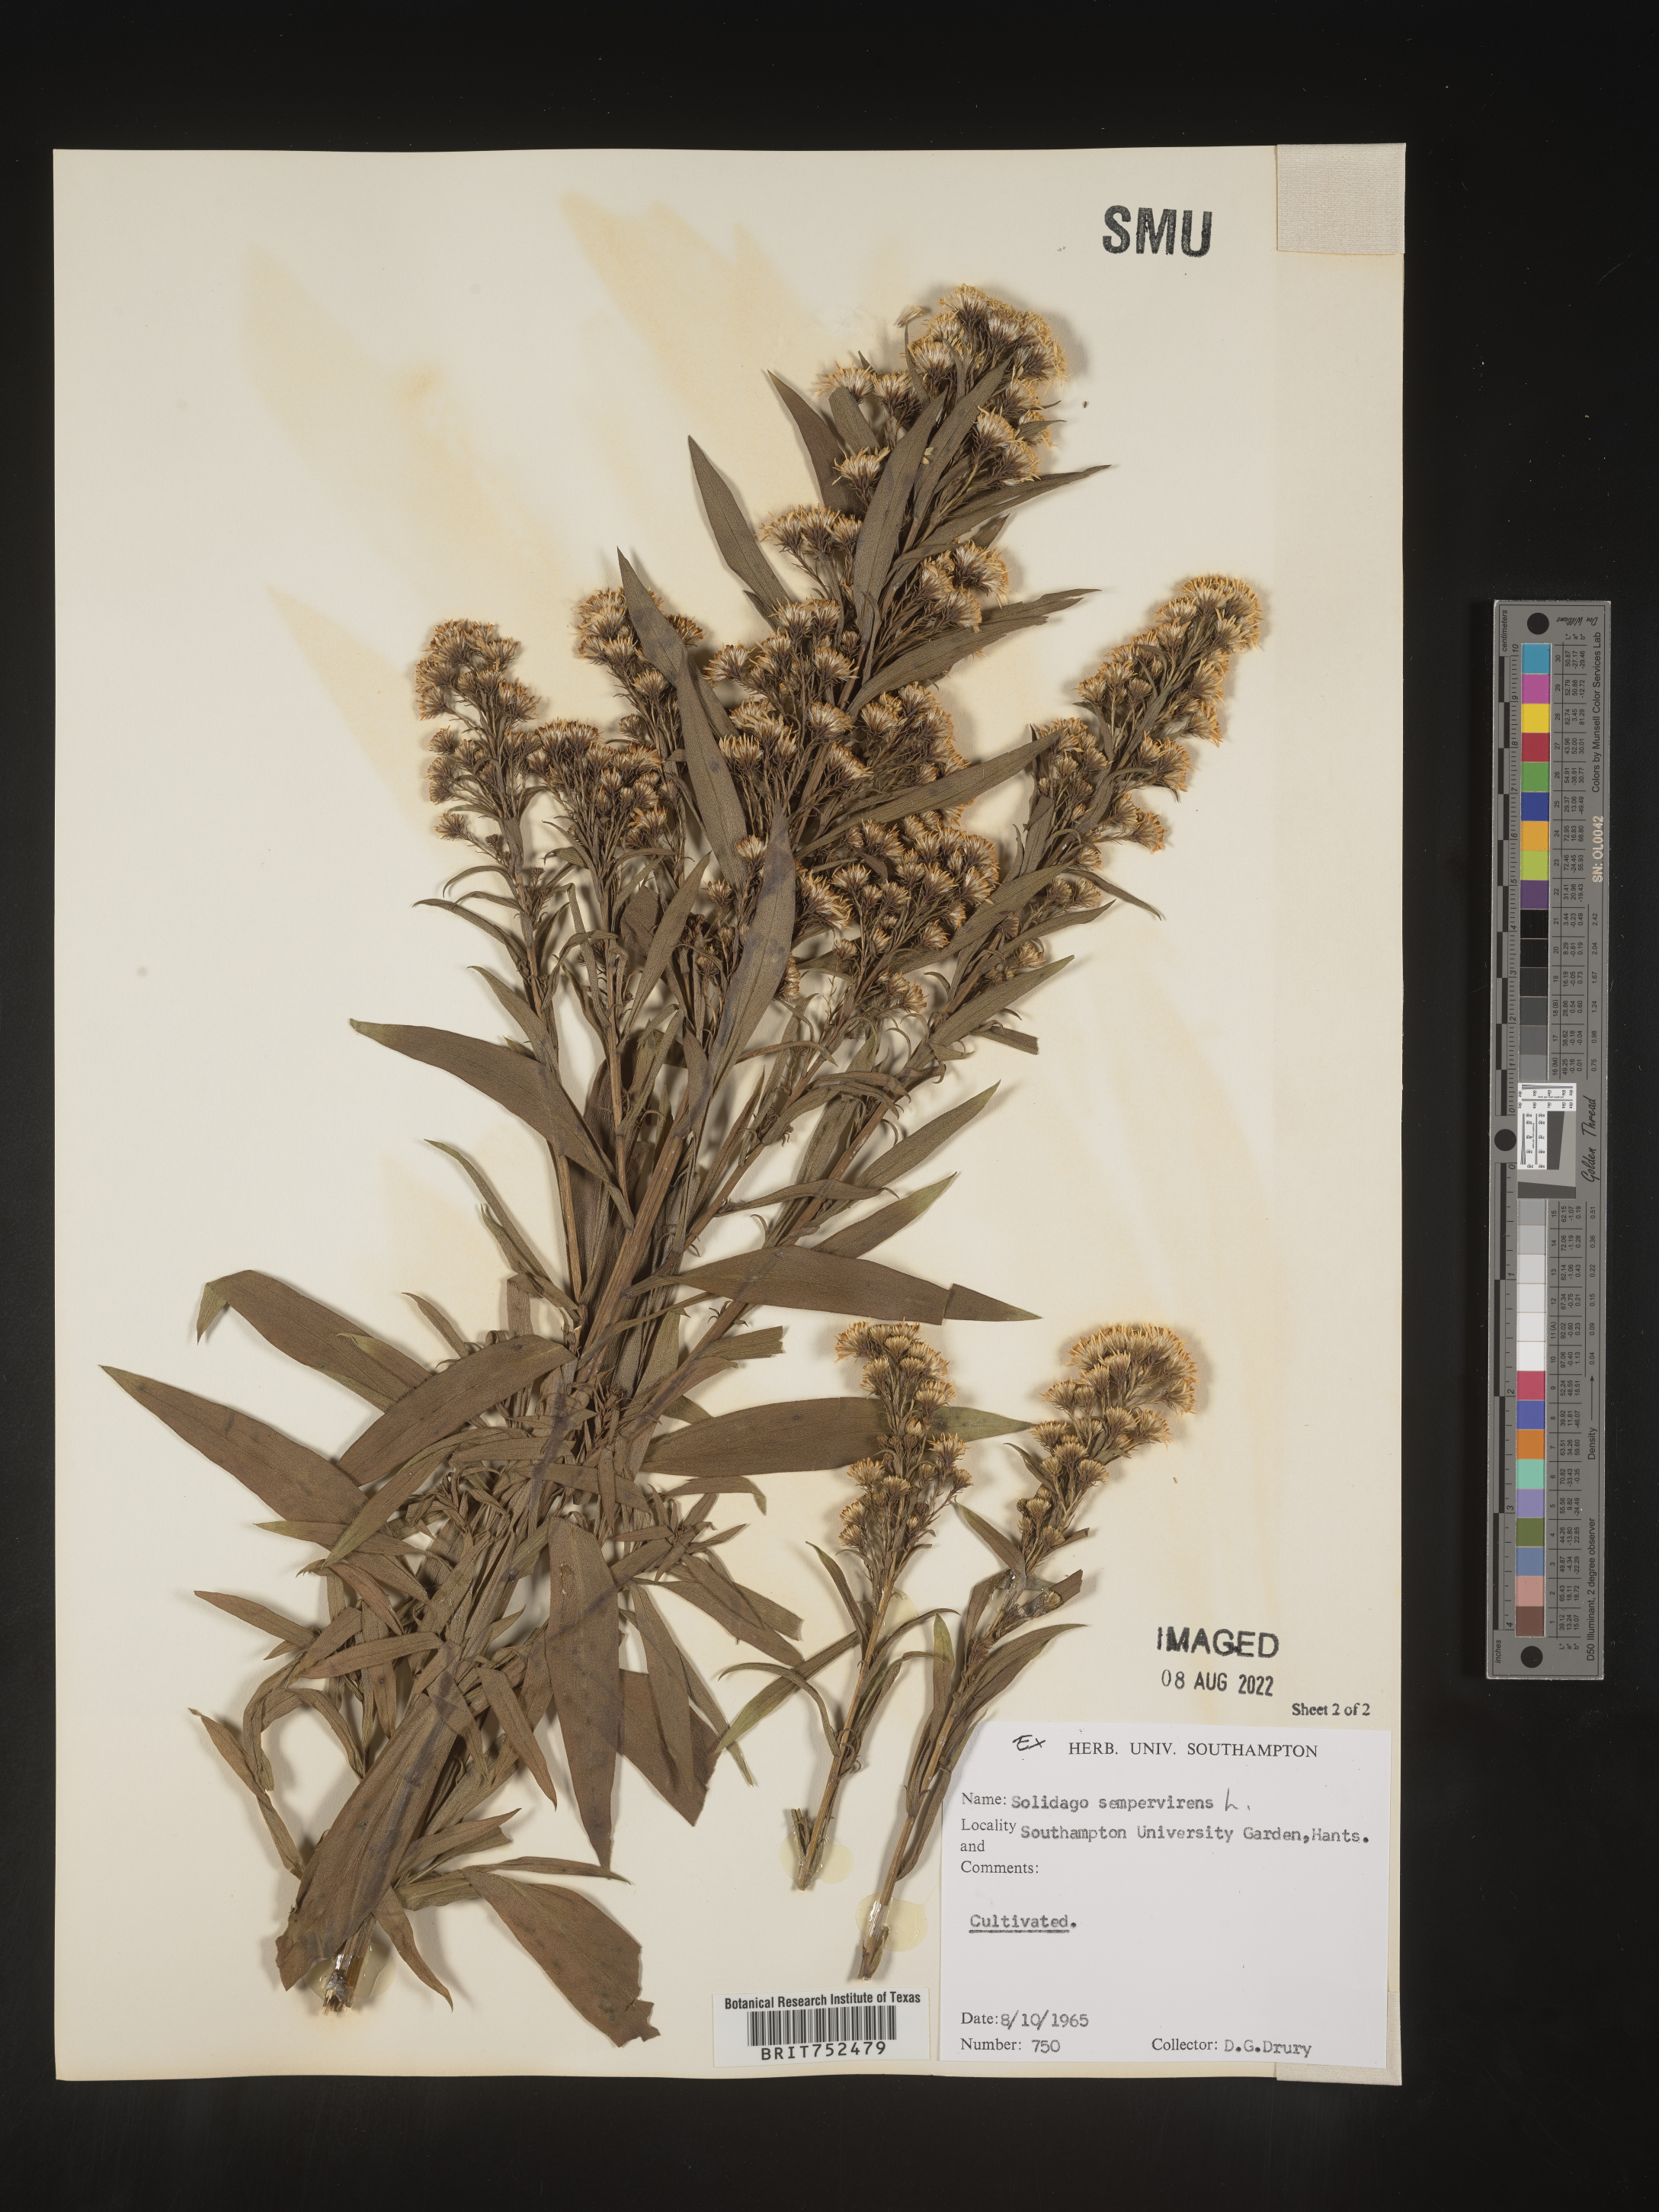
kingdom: Plantae
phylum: Tracheophyta
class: Magnoliopsida
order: Asterales
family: Asteraceae
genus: Solidago
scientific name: Solidago
